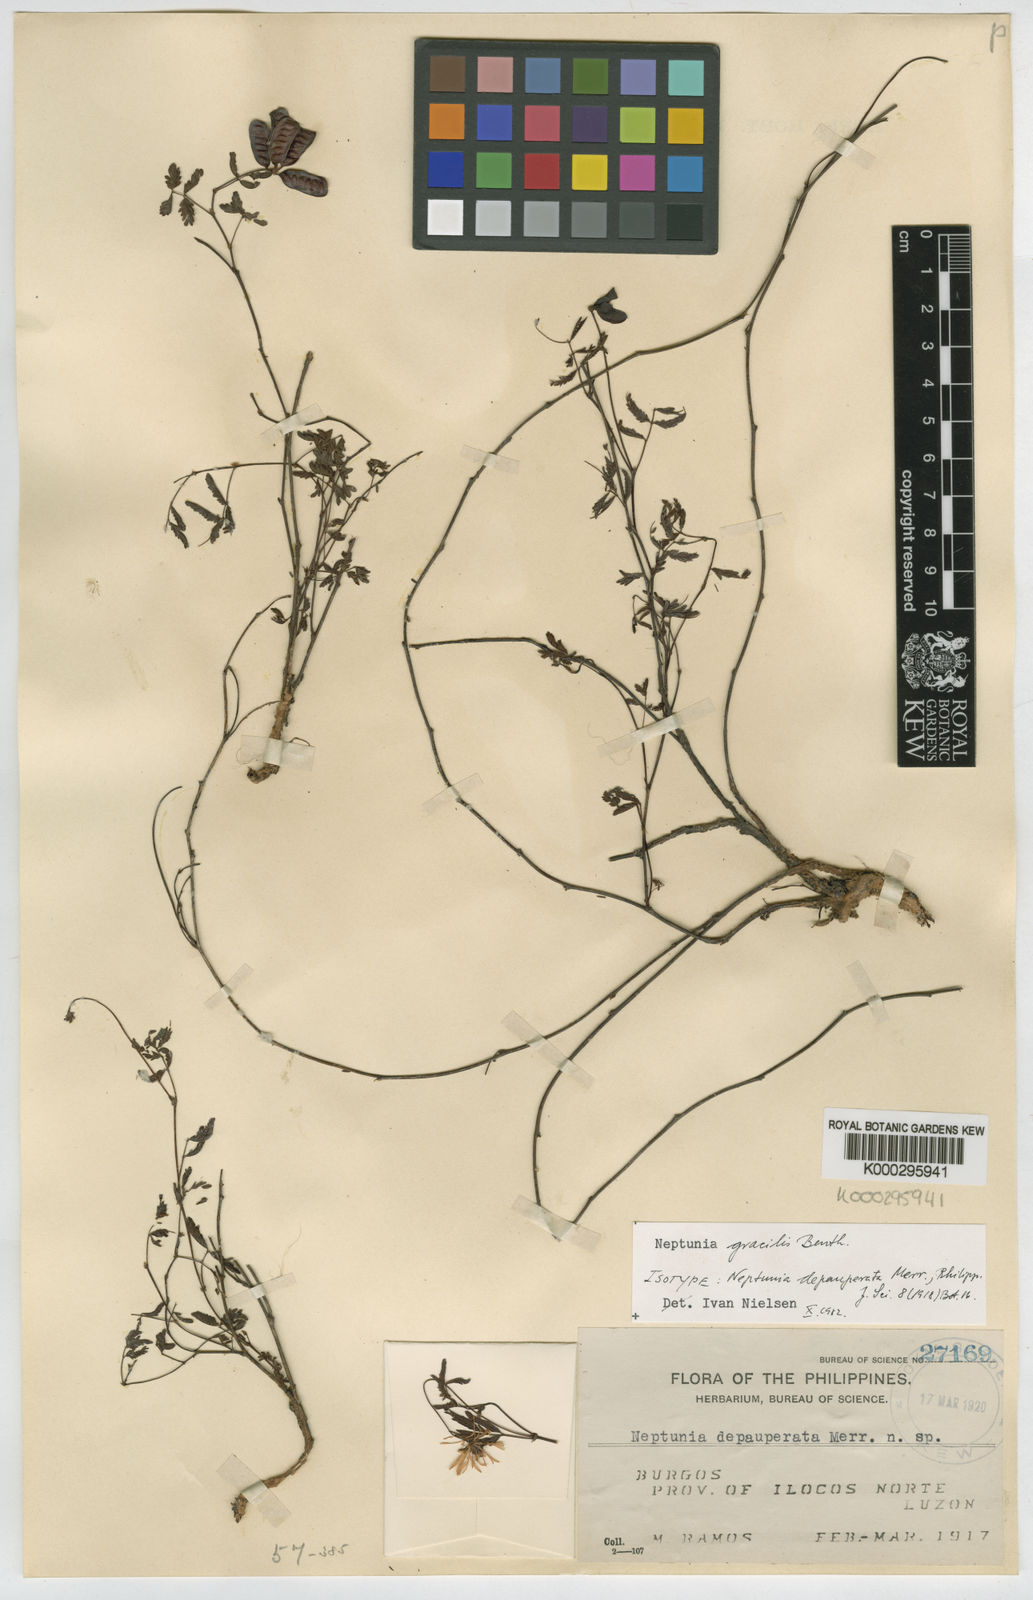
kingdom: Plantae
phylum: Tracheophyta
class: Magnoliopsida
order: Fabales
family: Fabaceae
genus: Neptunia
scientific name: Neptunia gracilis
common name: Sensitive-plant
